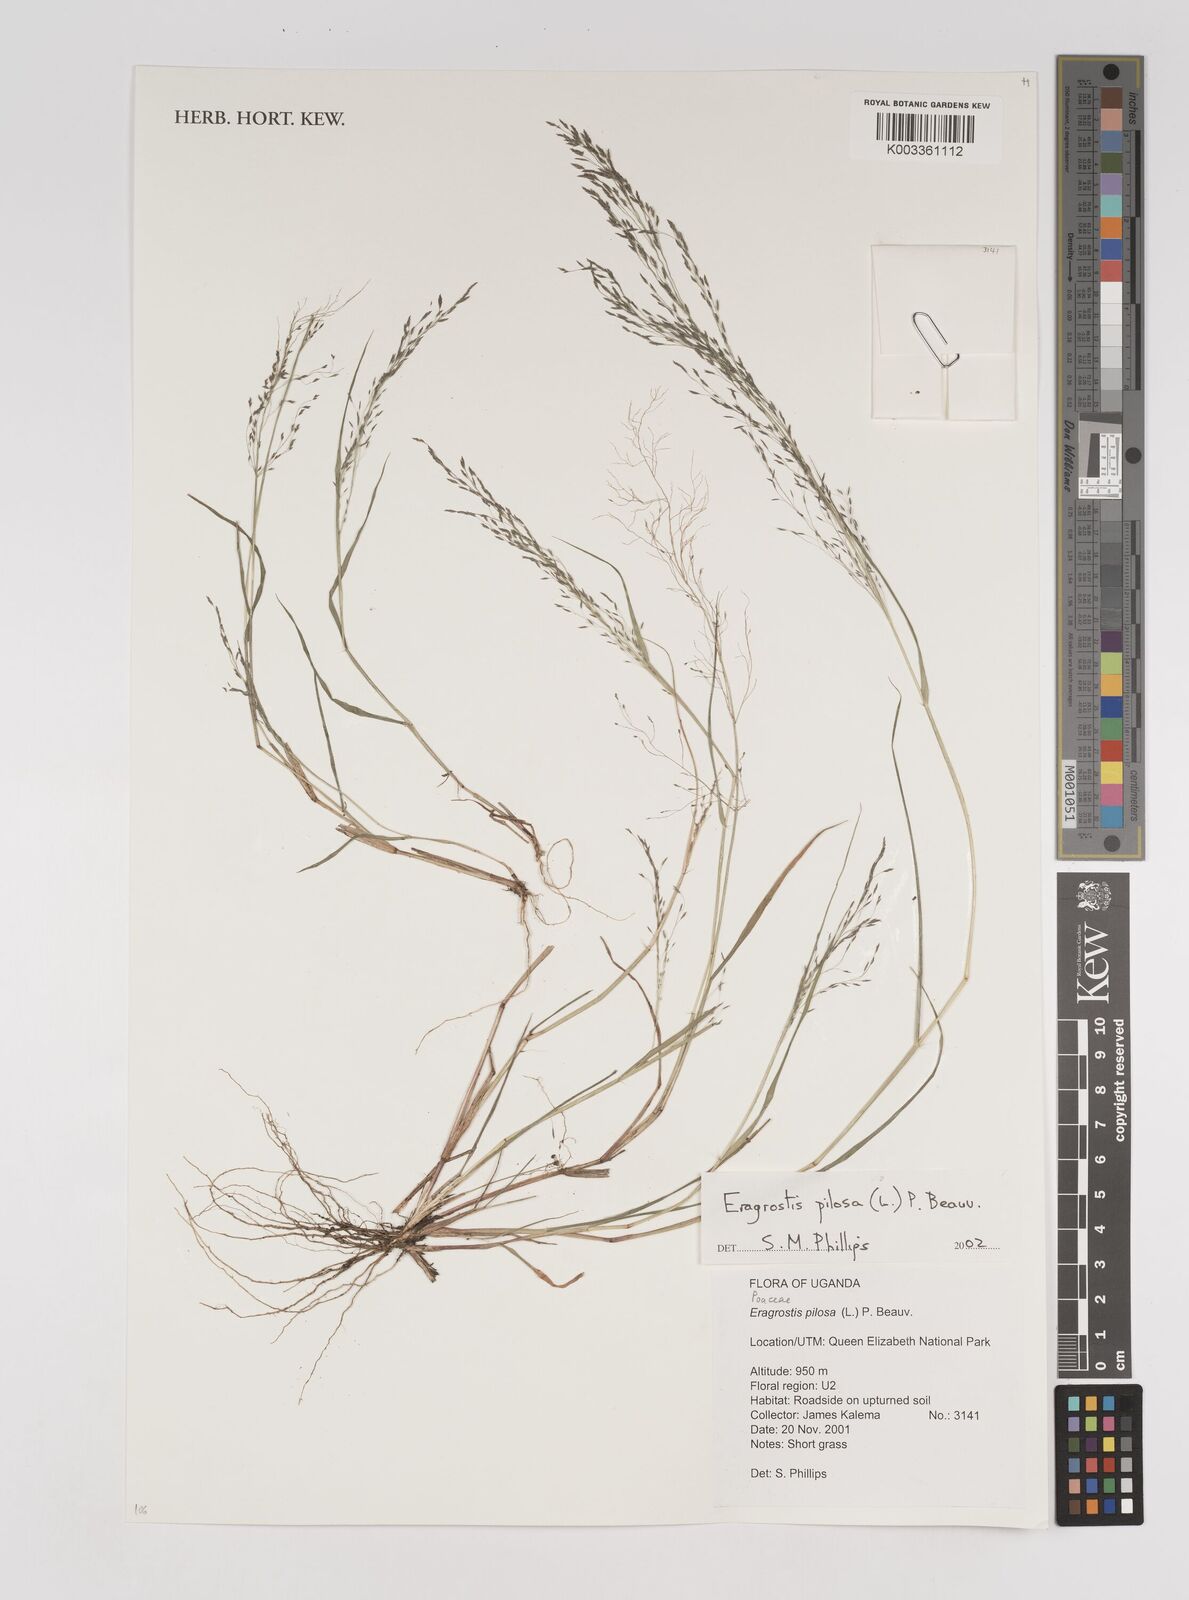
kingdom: Plantae
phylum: Tracheophyta
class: Liliopsida
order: Poales
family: Poaceae
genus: Eragrostis
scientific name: Eragrostis pilosa
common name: Indian lovegrass
